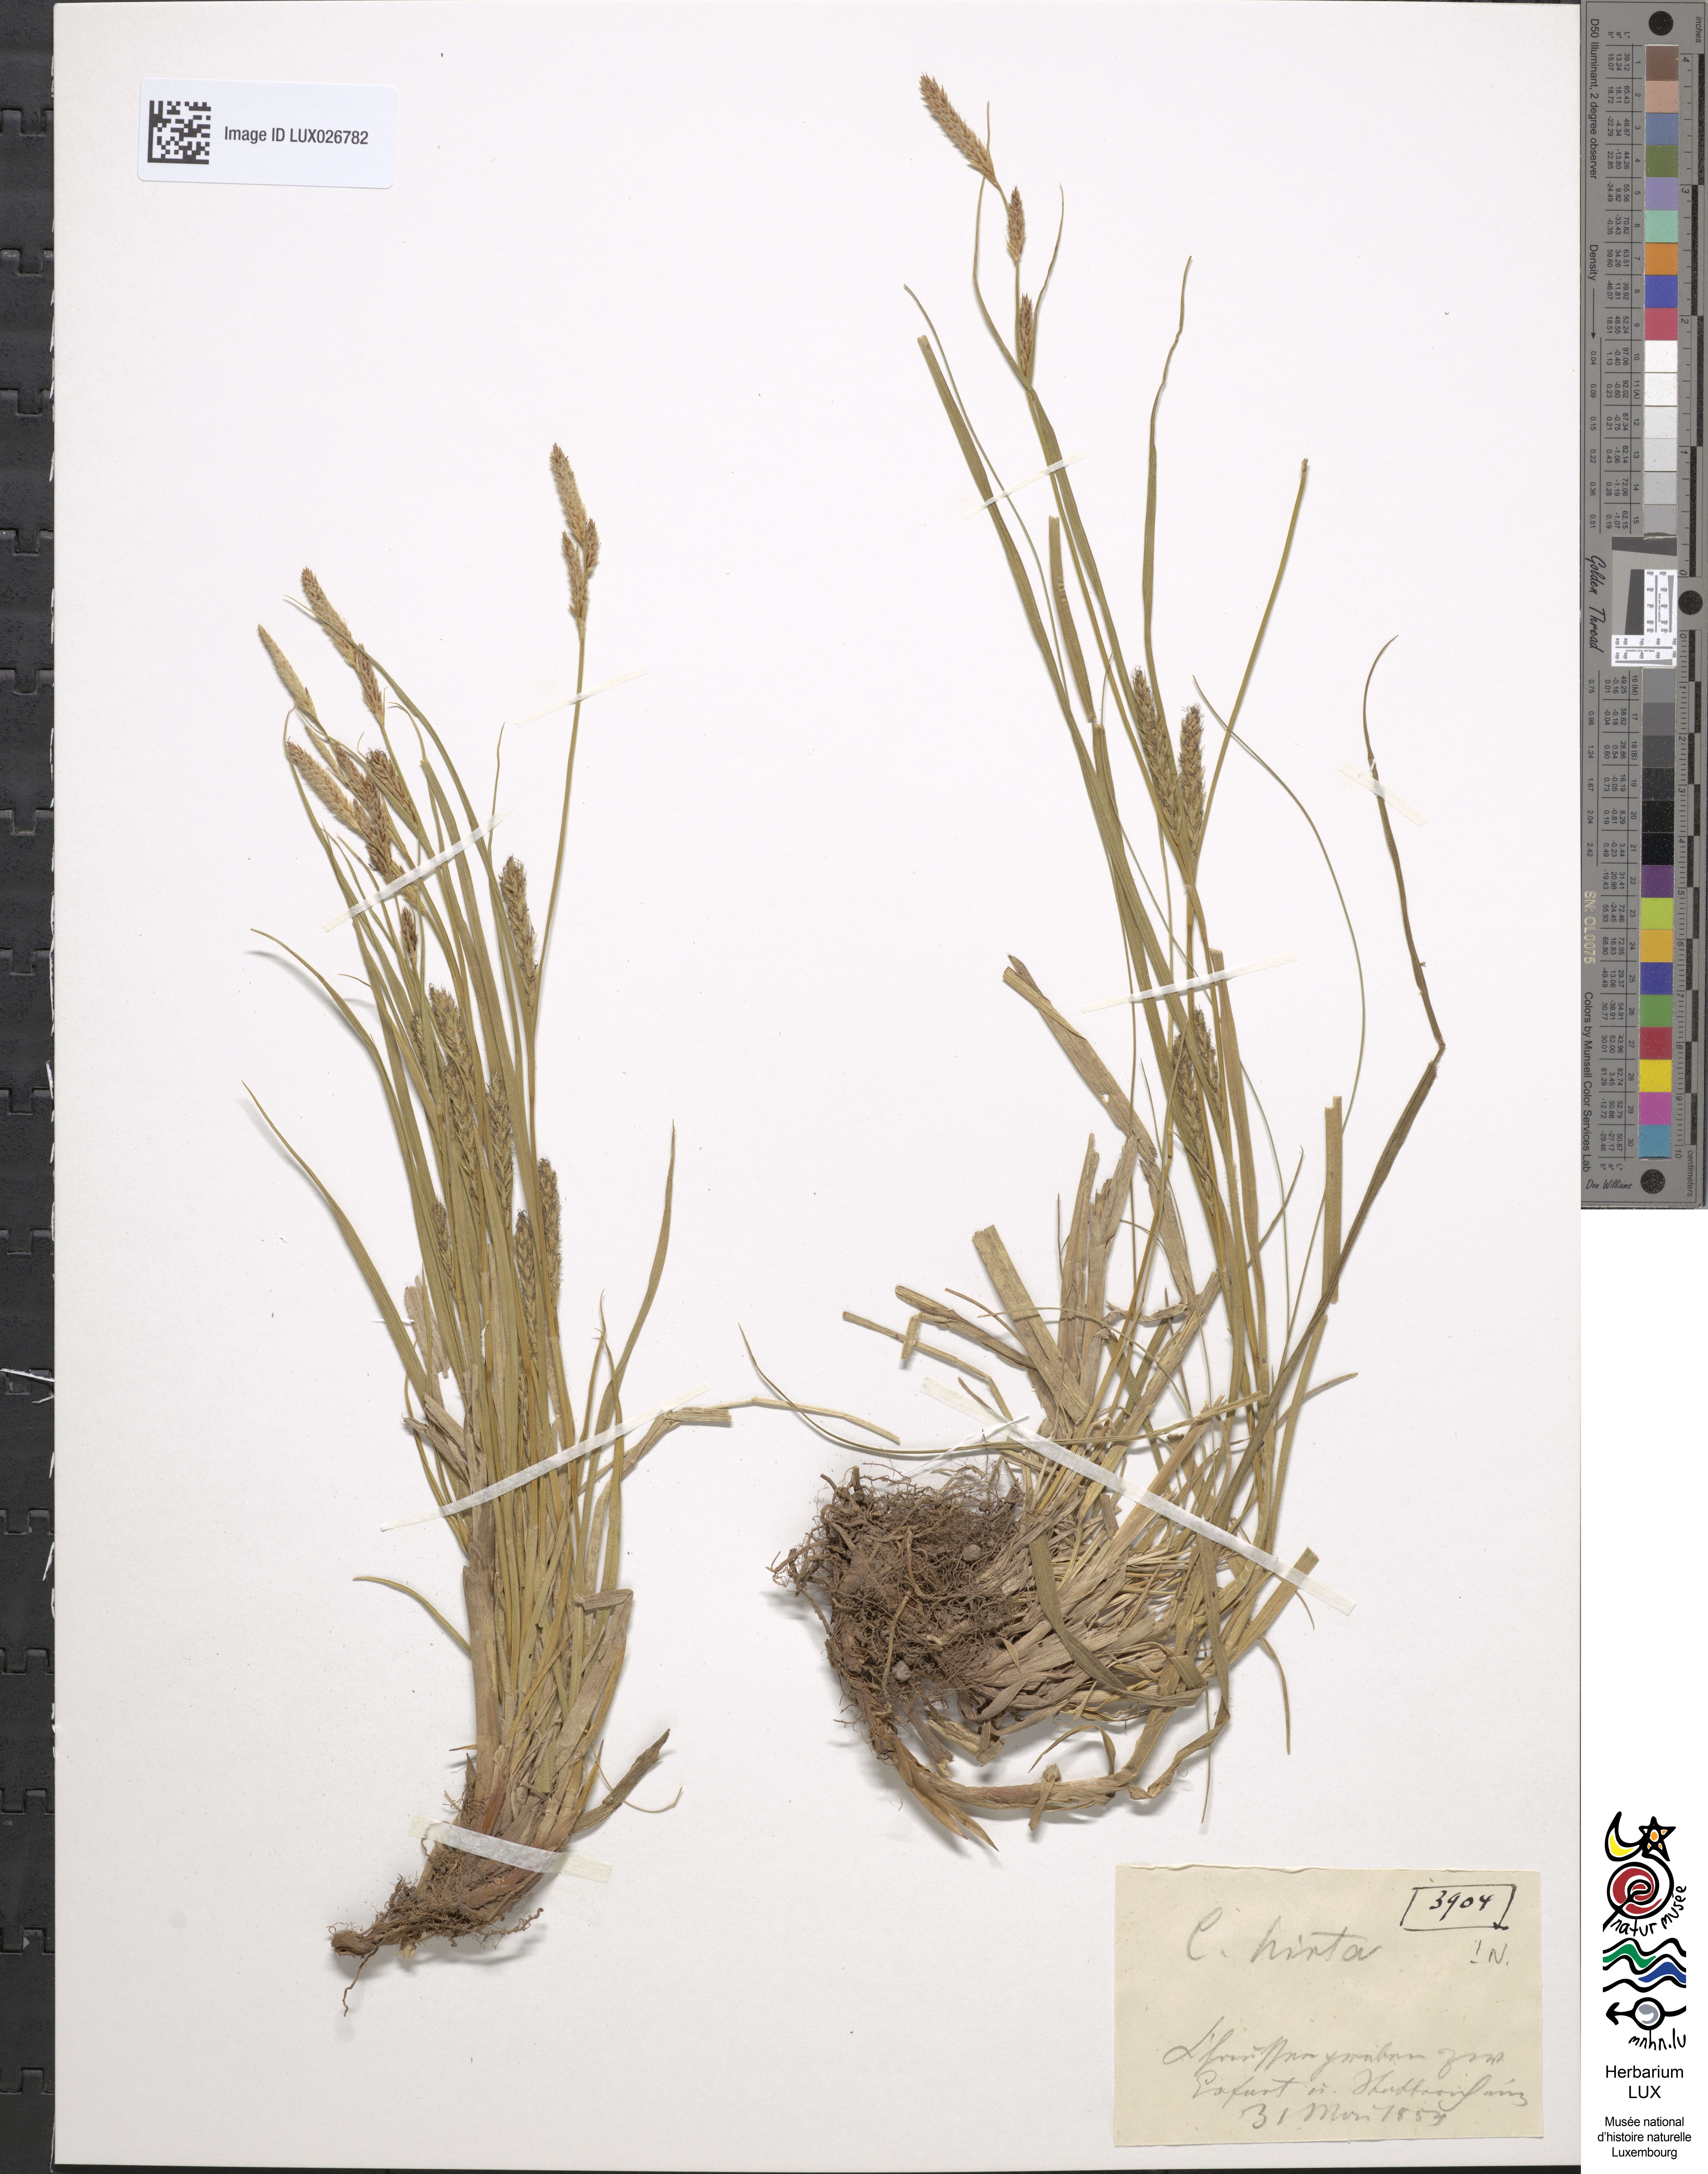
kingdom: Plantae
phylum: Tracheophyta
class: Liliopsida
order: Poales
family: Cyperaceae
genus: Carex
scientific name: Carex hirta
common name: Hairy sedge
